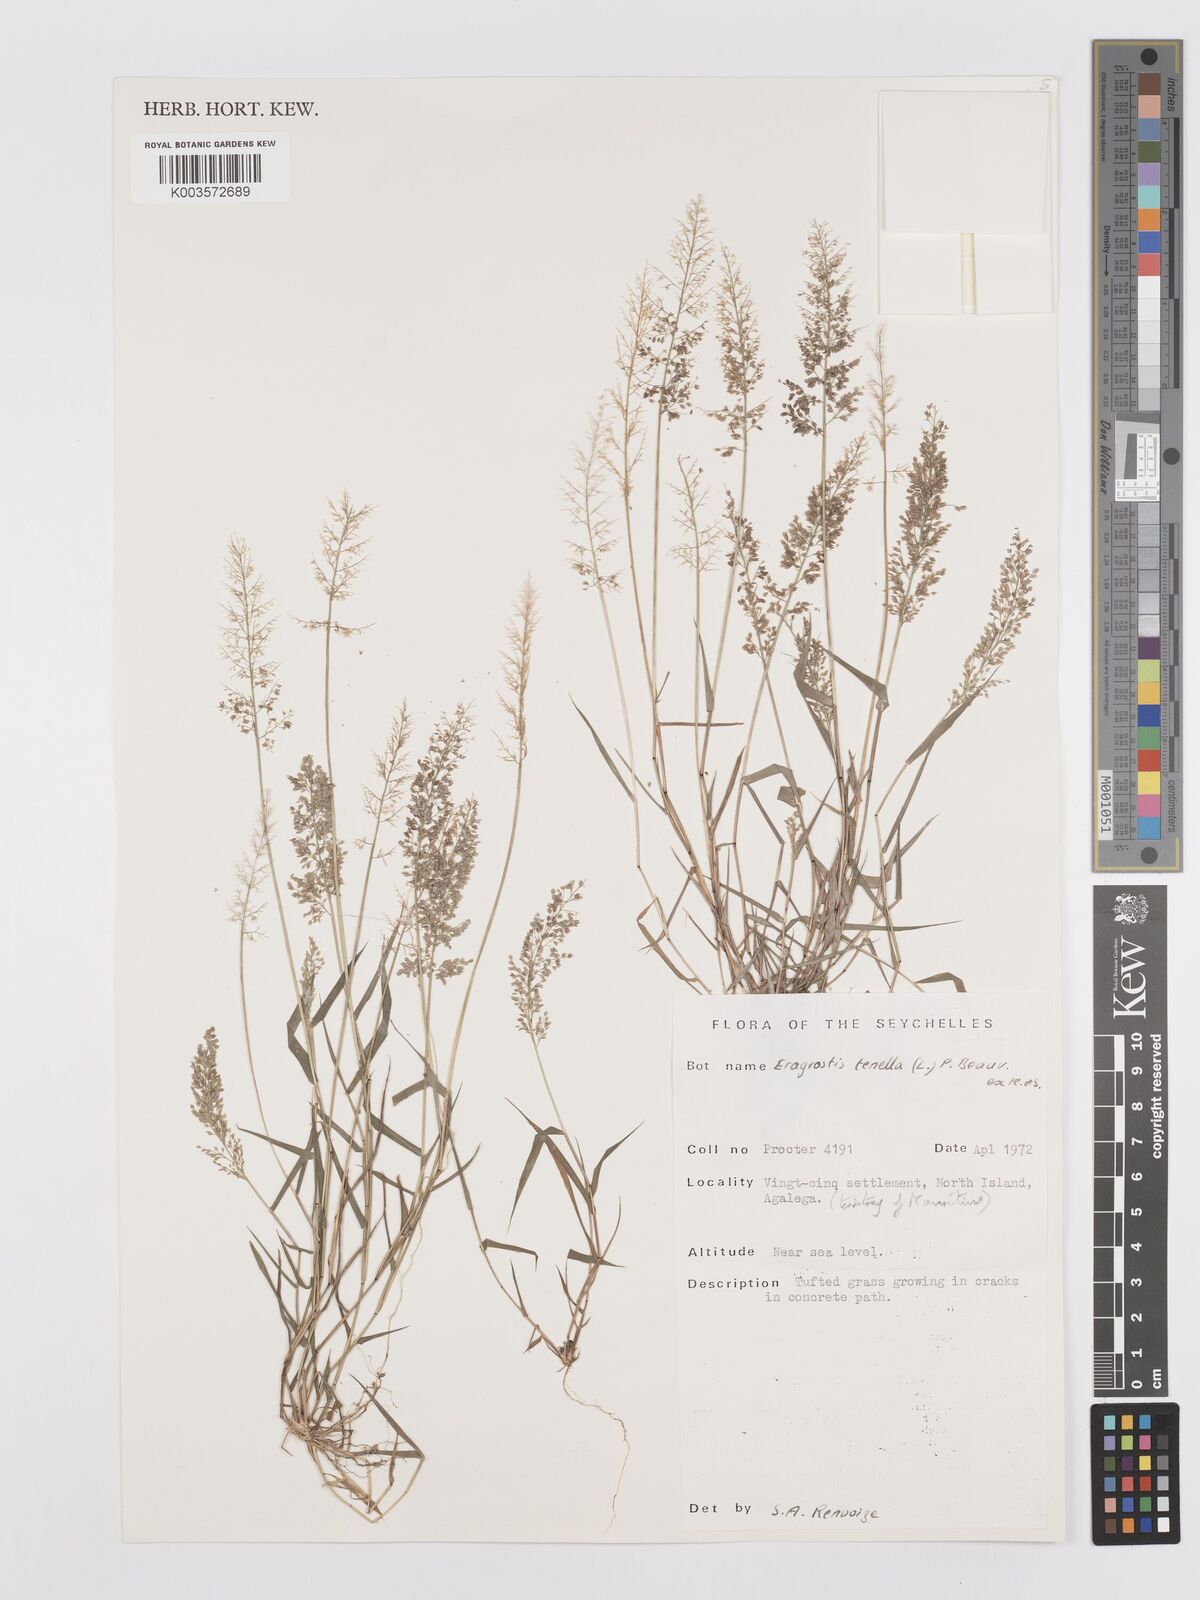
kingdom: Plantae
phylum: Tracheophyta
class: Liliopsida
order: Poales
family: Poaceae
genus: Eragrostis
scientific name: Eragrostis tenella
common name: Japanese lovegrass
